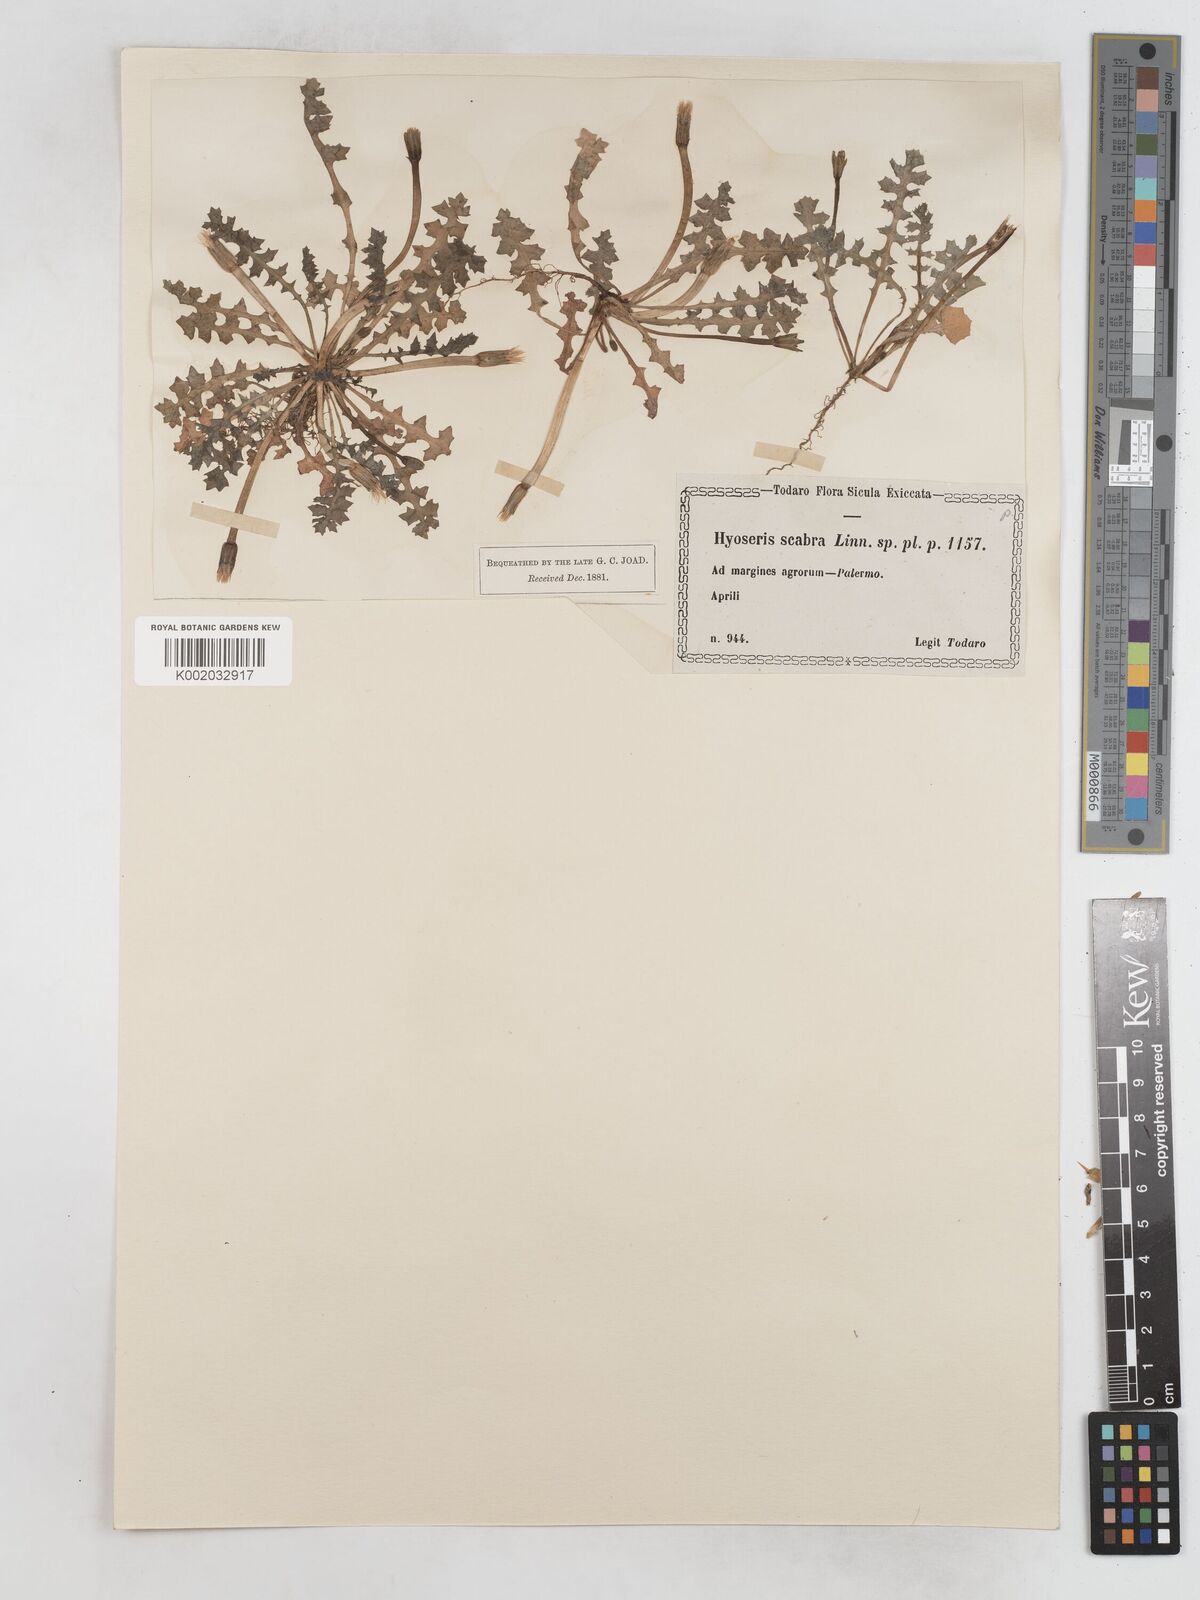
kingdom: Plantae
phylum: Tracheophyta
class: Magnoliopsida
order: Asterales
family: Asteraceae
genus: Hyoseris
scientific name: Hyoseris scabra
